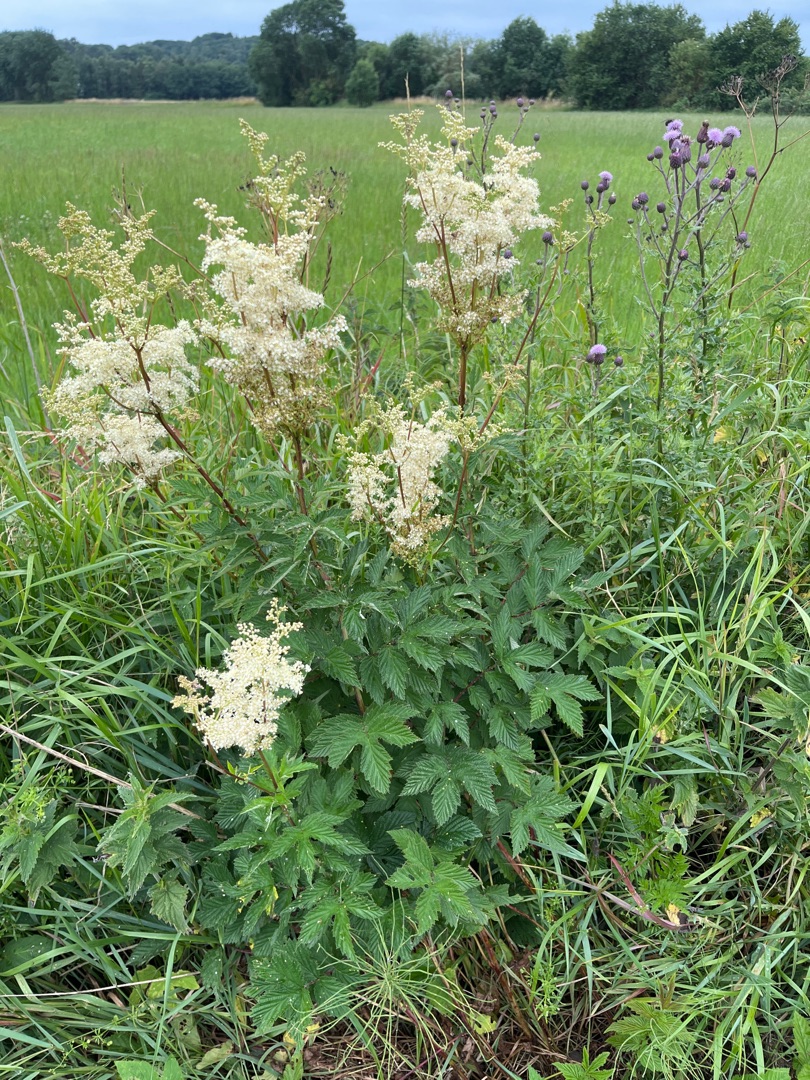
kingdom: Plantae
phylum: Tracheophyta
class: Magnoliopsida
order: Rosales
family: Rosaceae
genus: Filipendula
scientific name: Filipendula ulmaria
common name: Almindelig mjødurt
